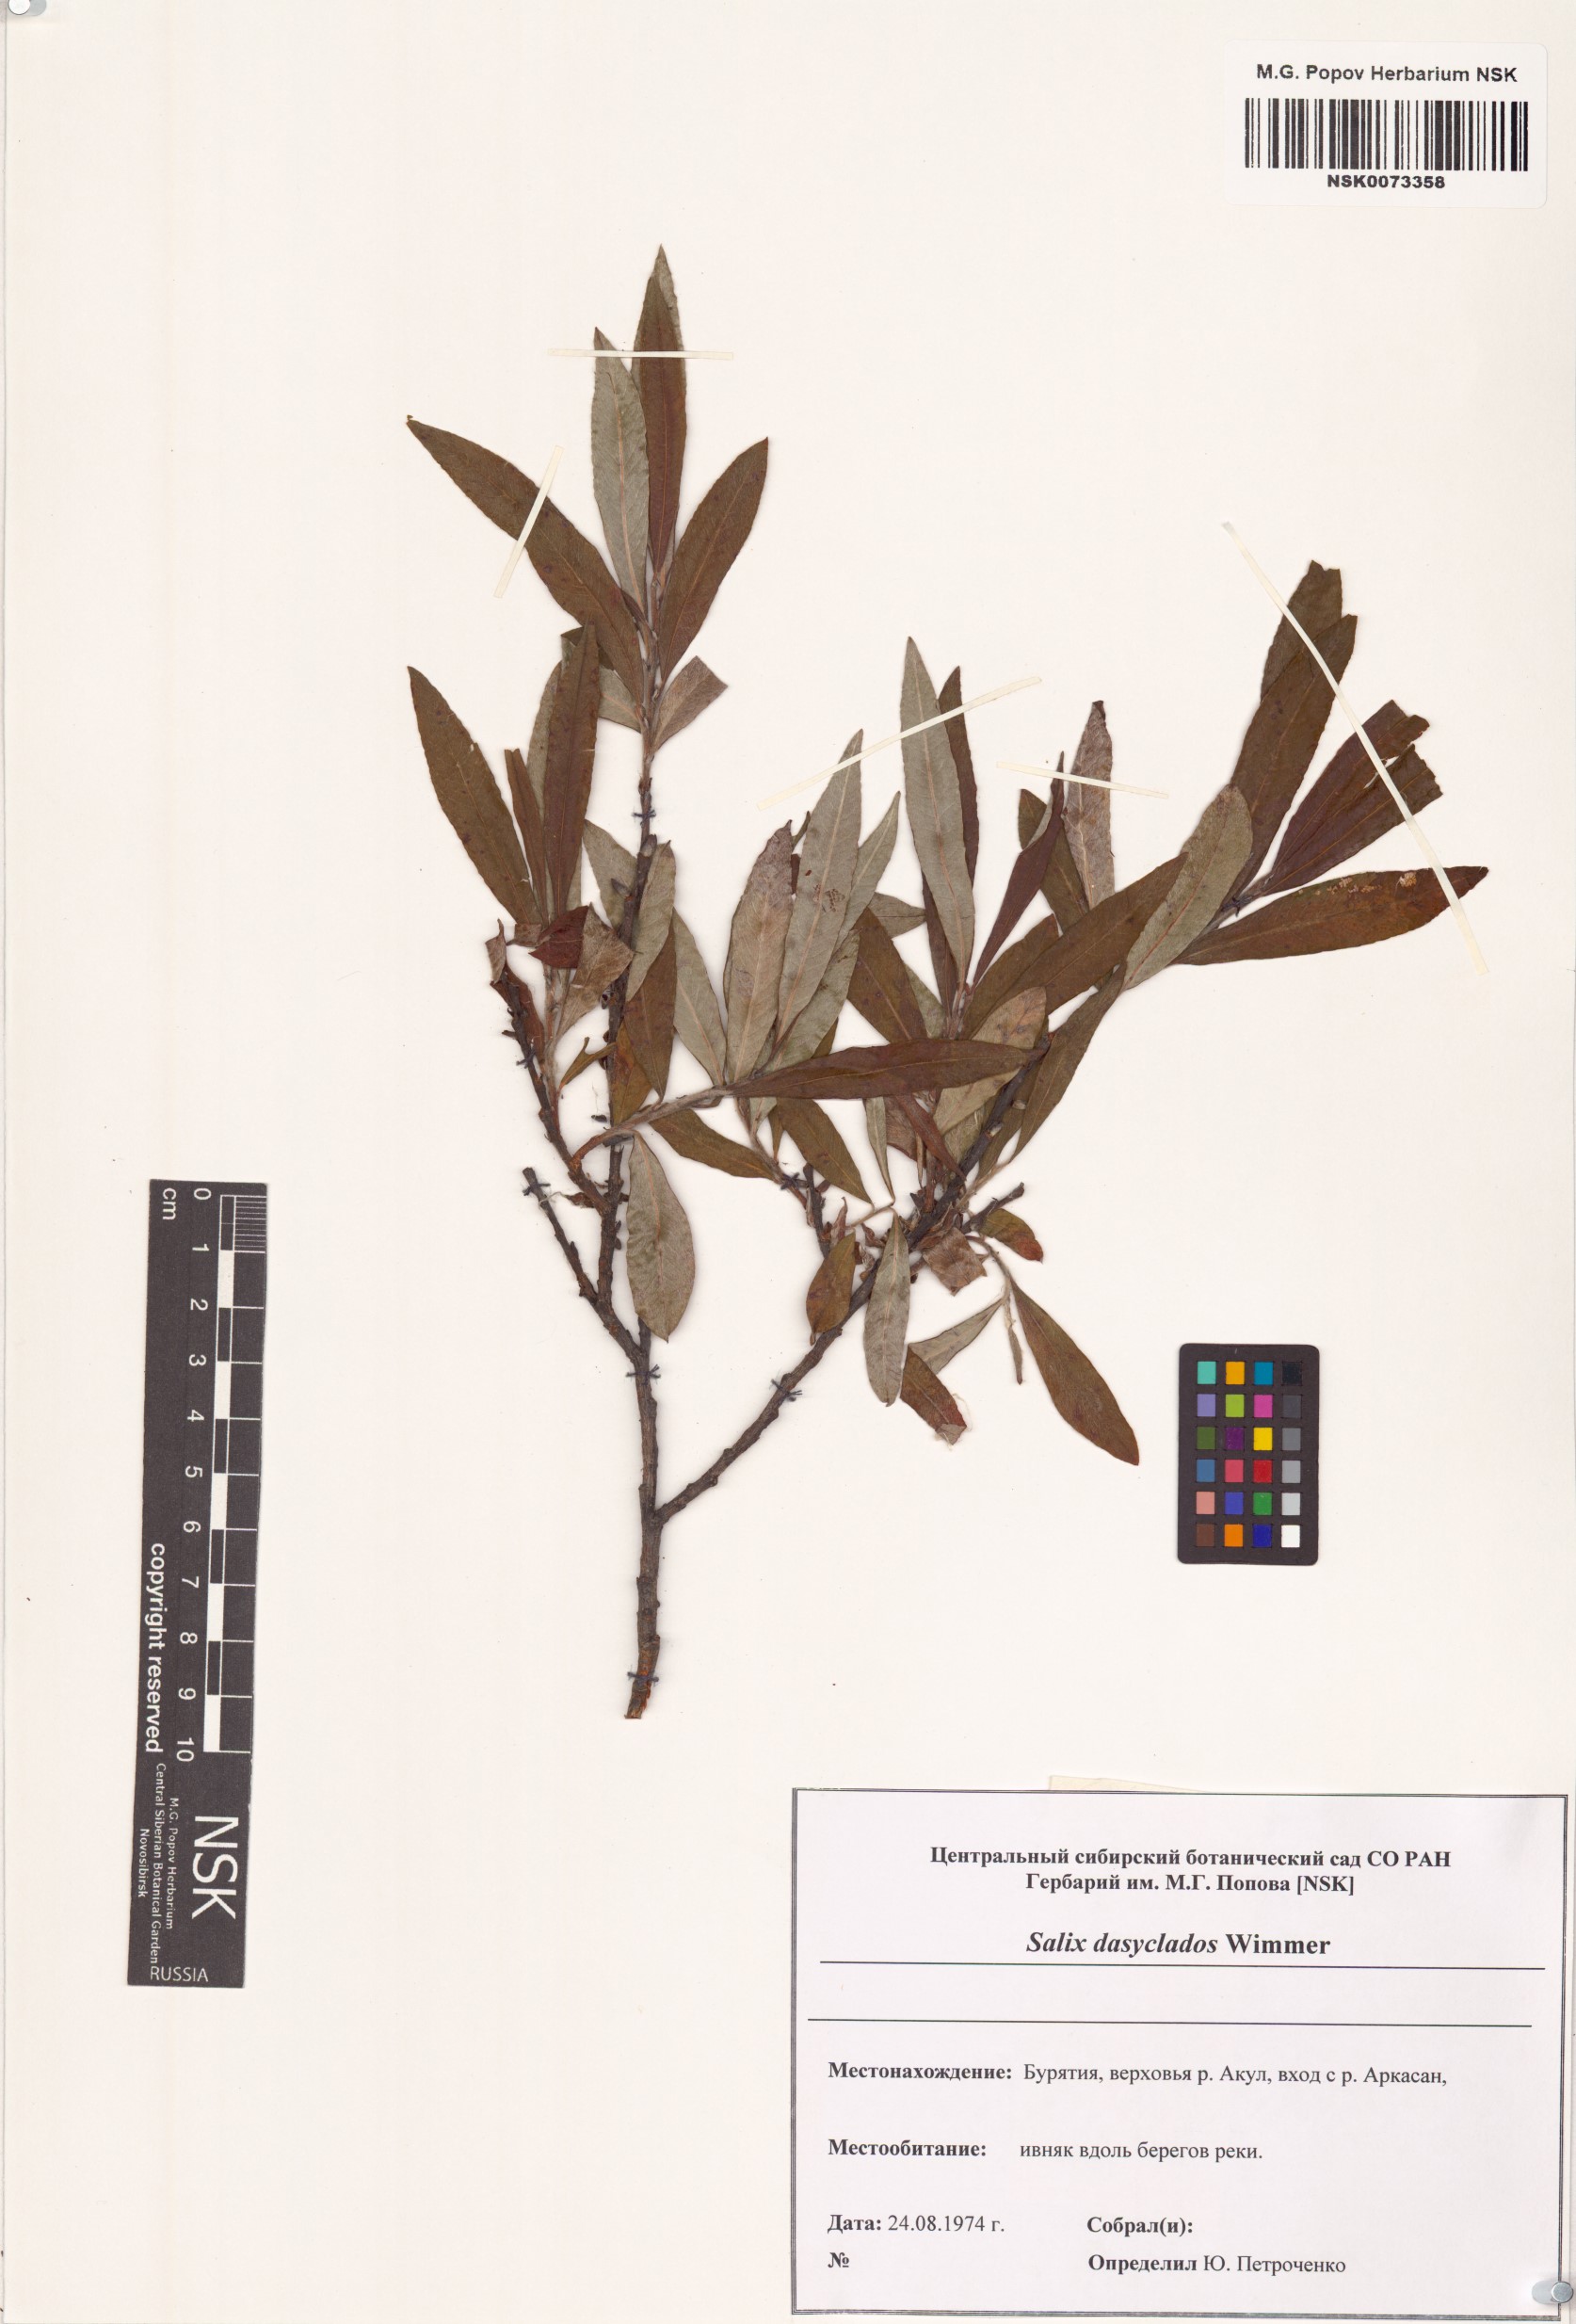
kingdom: Plantae
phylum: Tracheophyta
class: Magnoliopsida
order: Malpighiales
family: Salicaceae
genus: Salix
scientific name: Salix gmelinii
